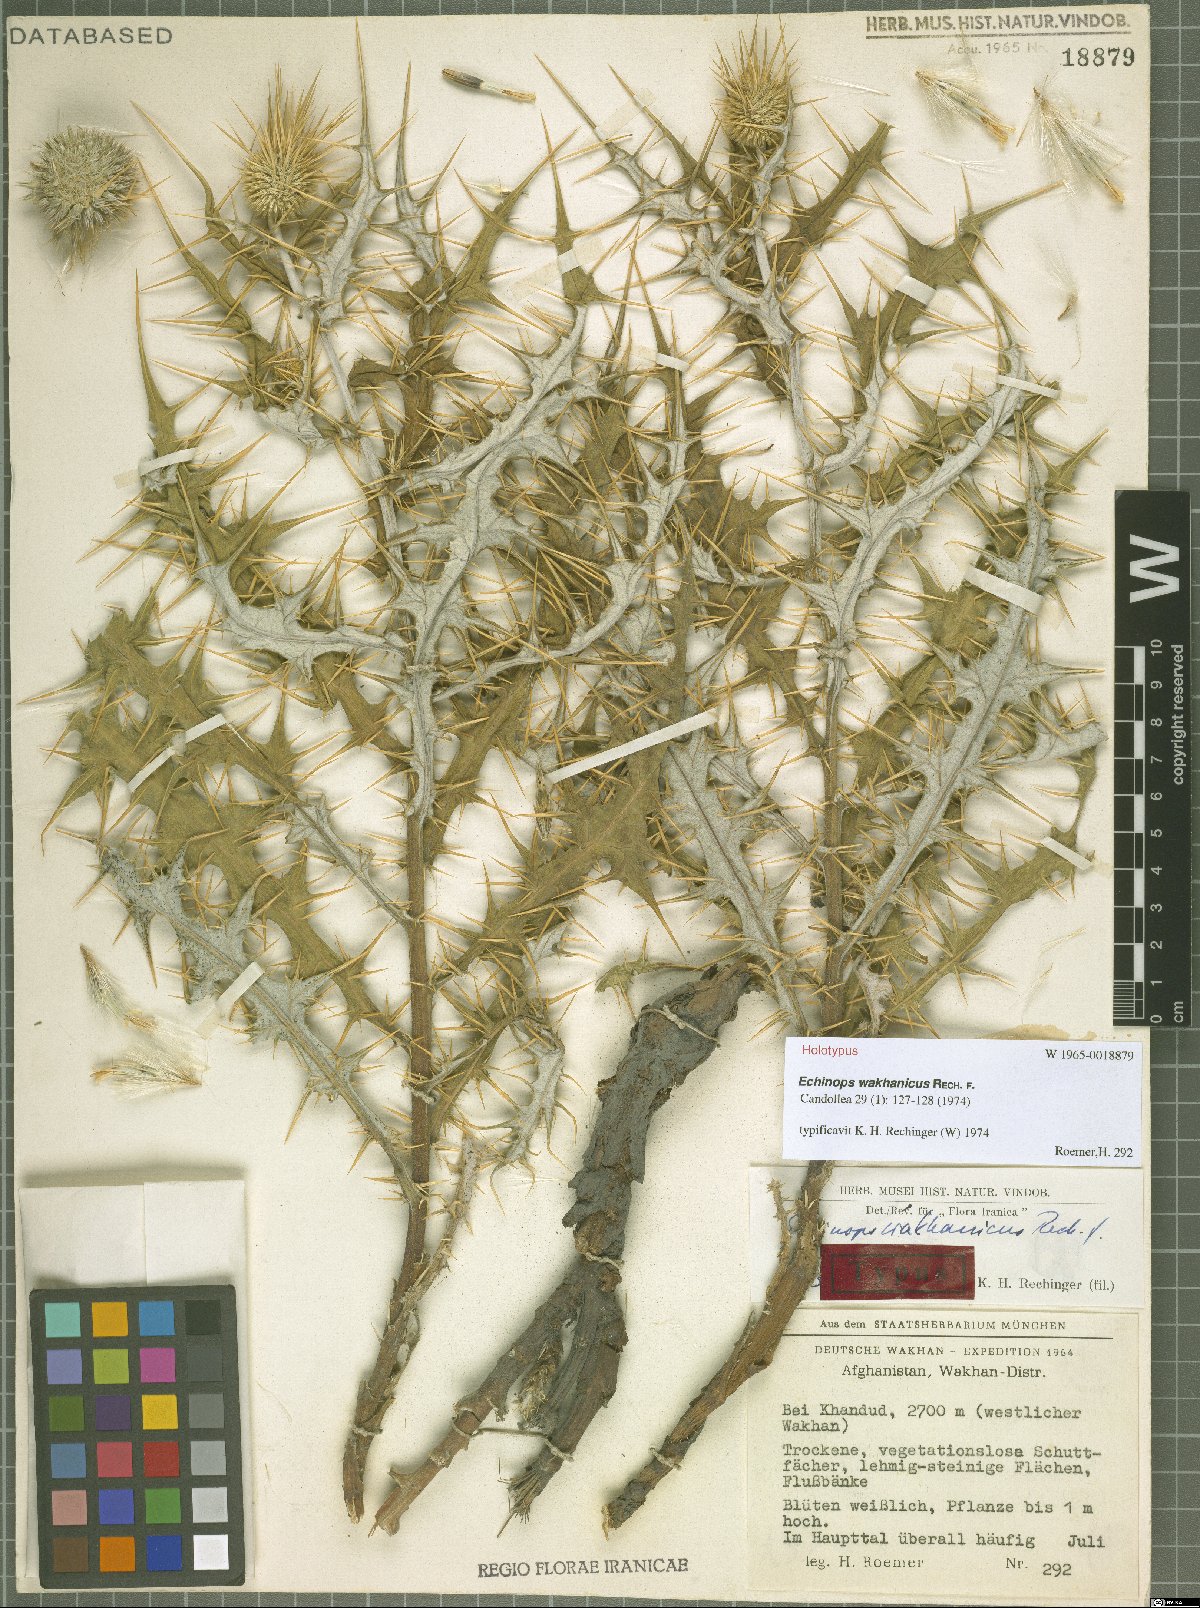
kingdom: Plantae
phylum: Tracheophyta
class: Magnoliopsida
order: Asterales
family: Asteraceae
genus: Echinops
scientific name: Echinops wakhanicus
